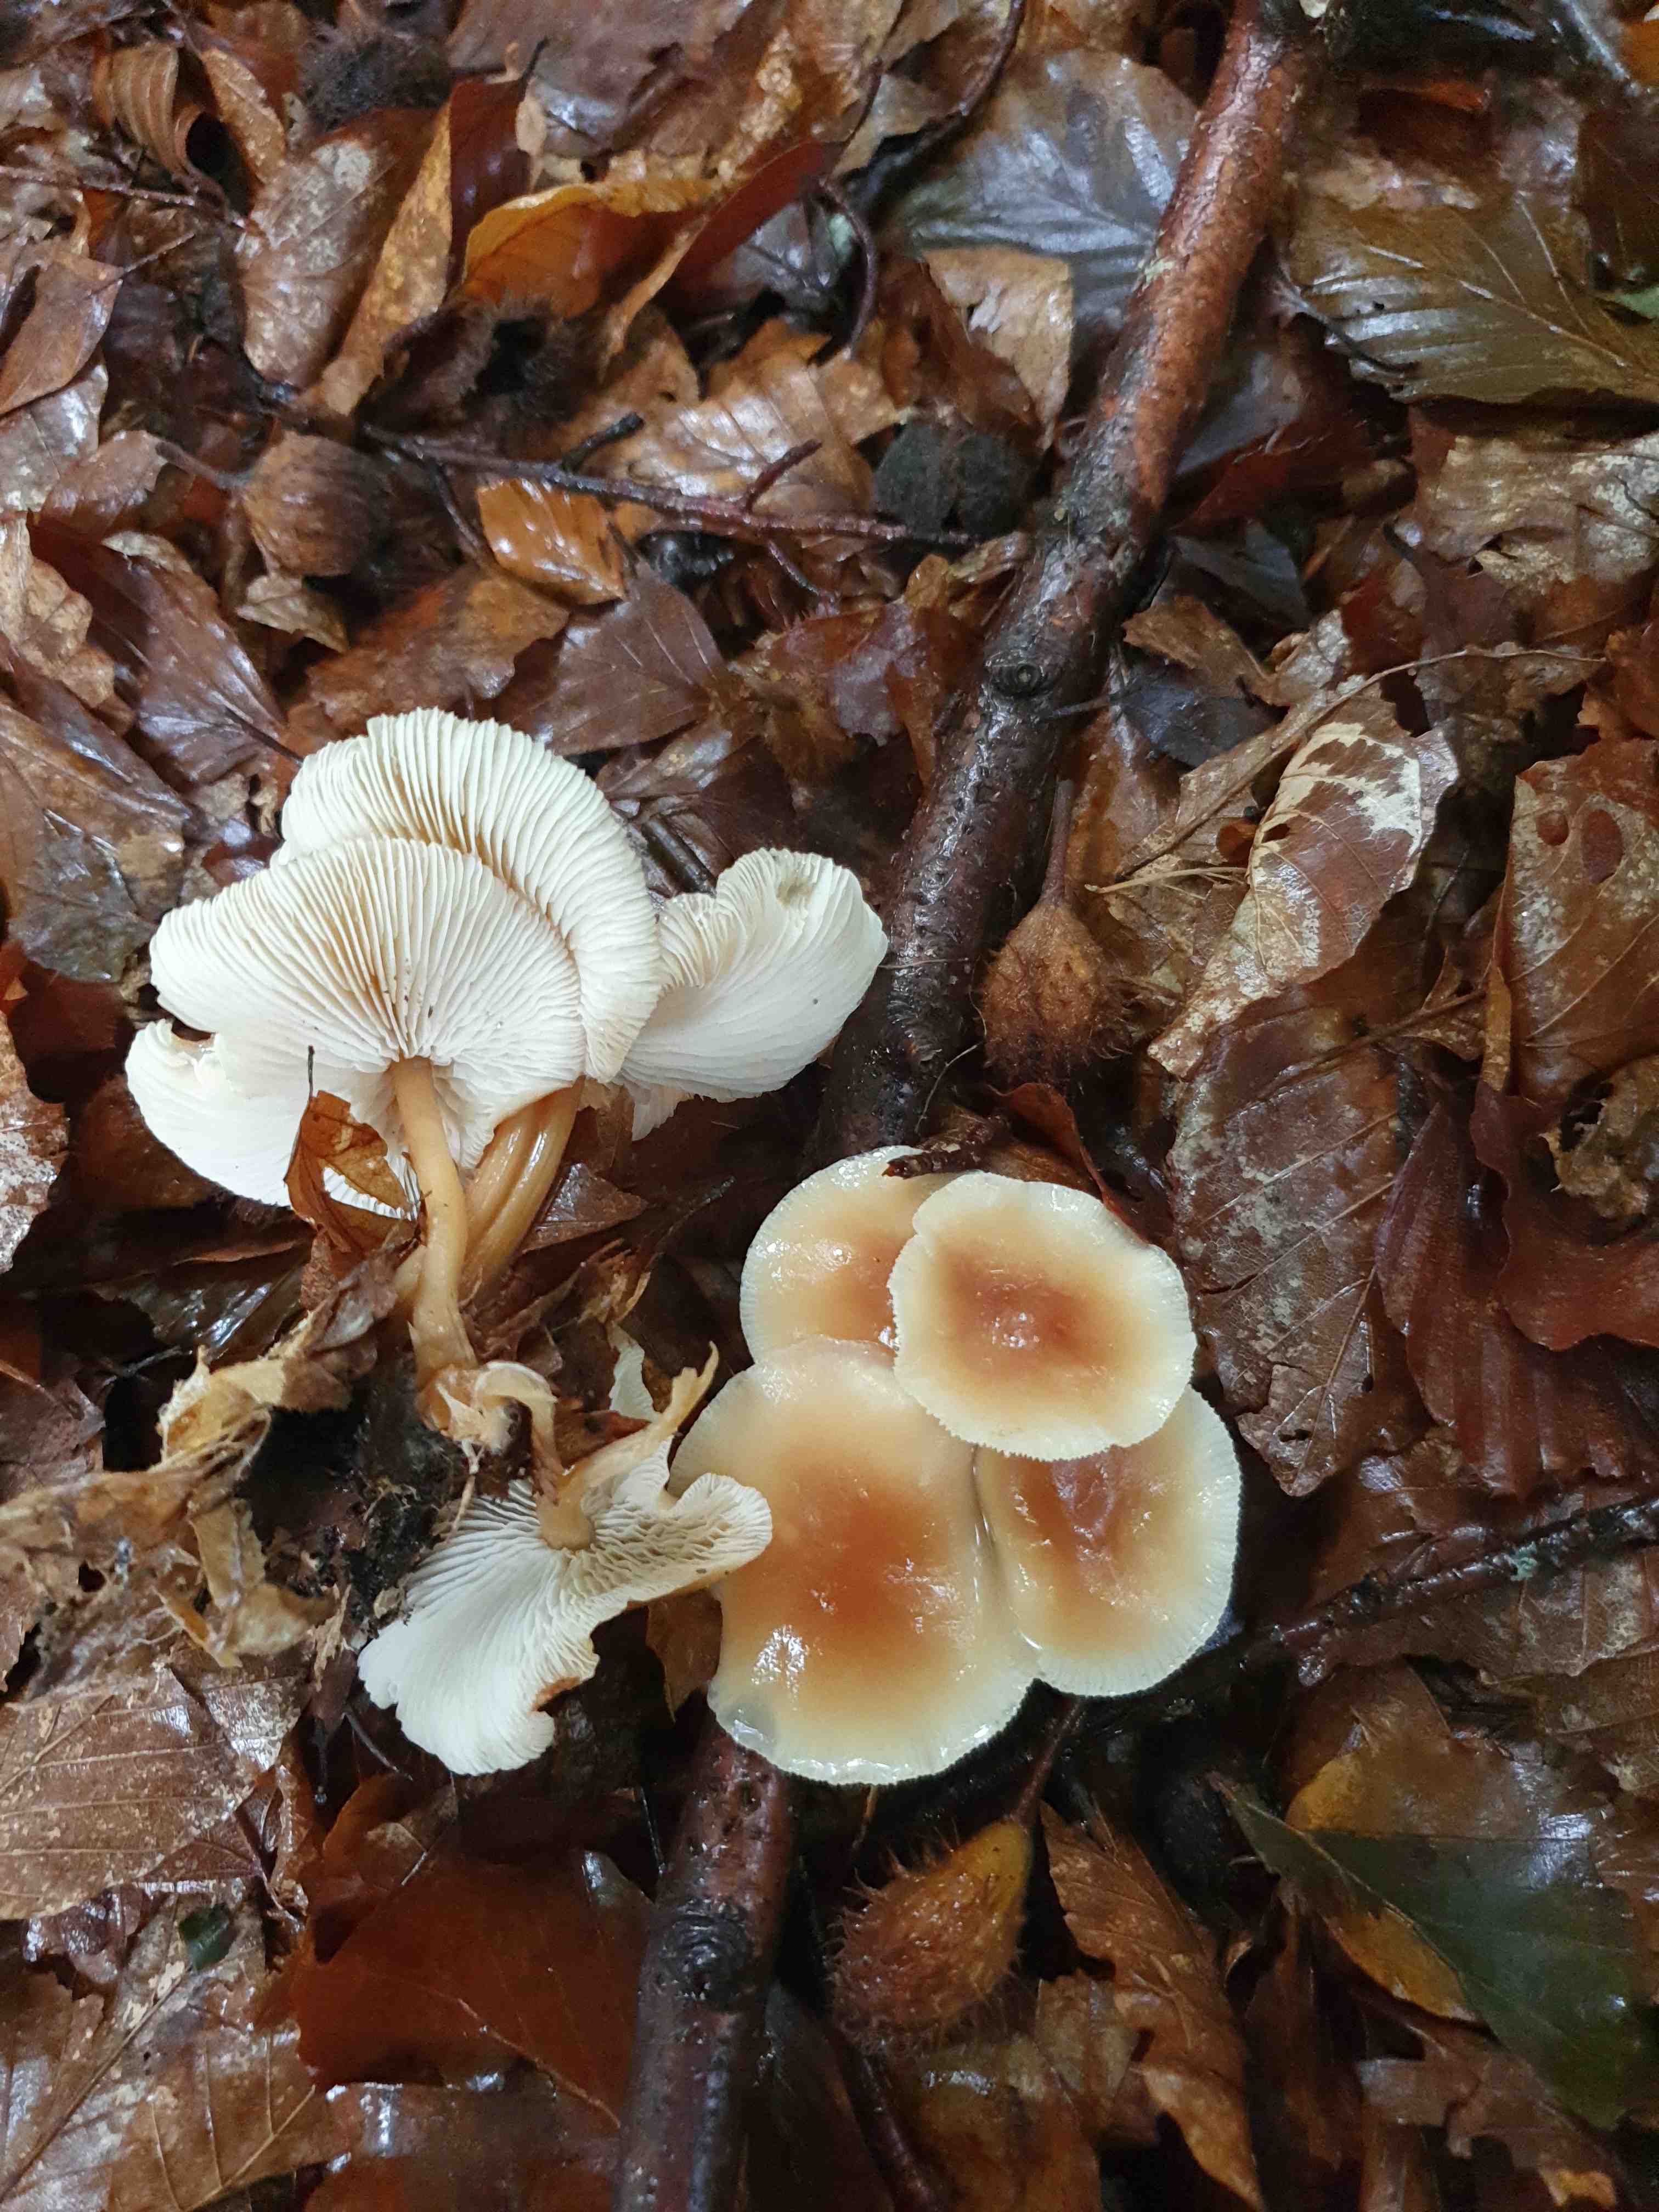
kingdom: Fungi
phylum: Basidiomycota
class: Agaricomycetes
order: Agaricales
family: Omphalotaceae
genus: Gymnopus
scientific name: Gymnopus dryophilus
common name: løv-fladhat
